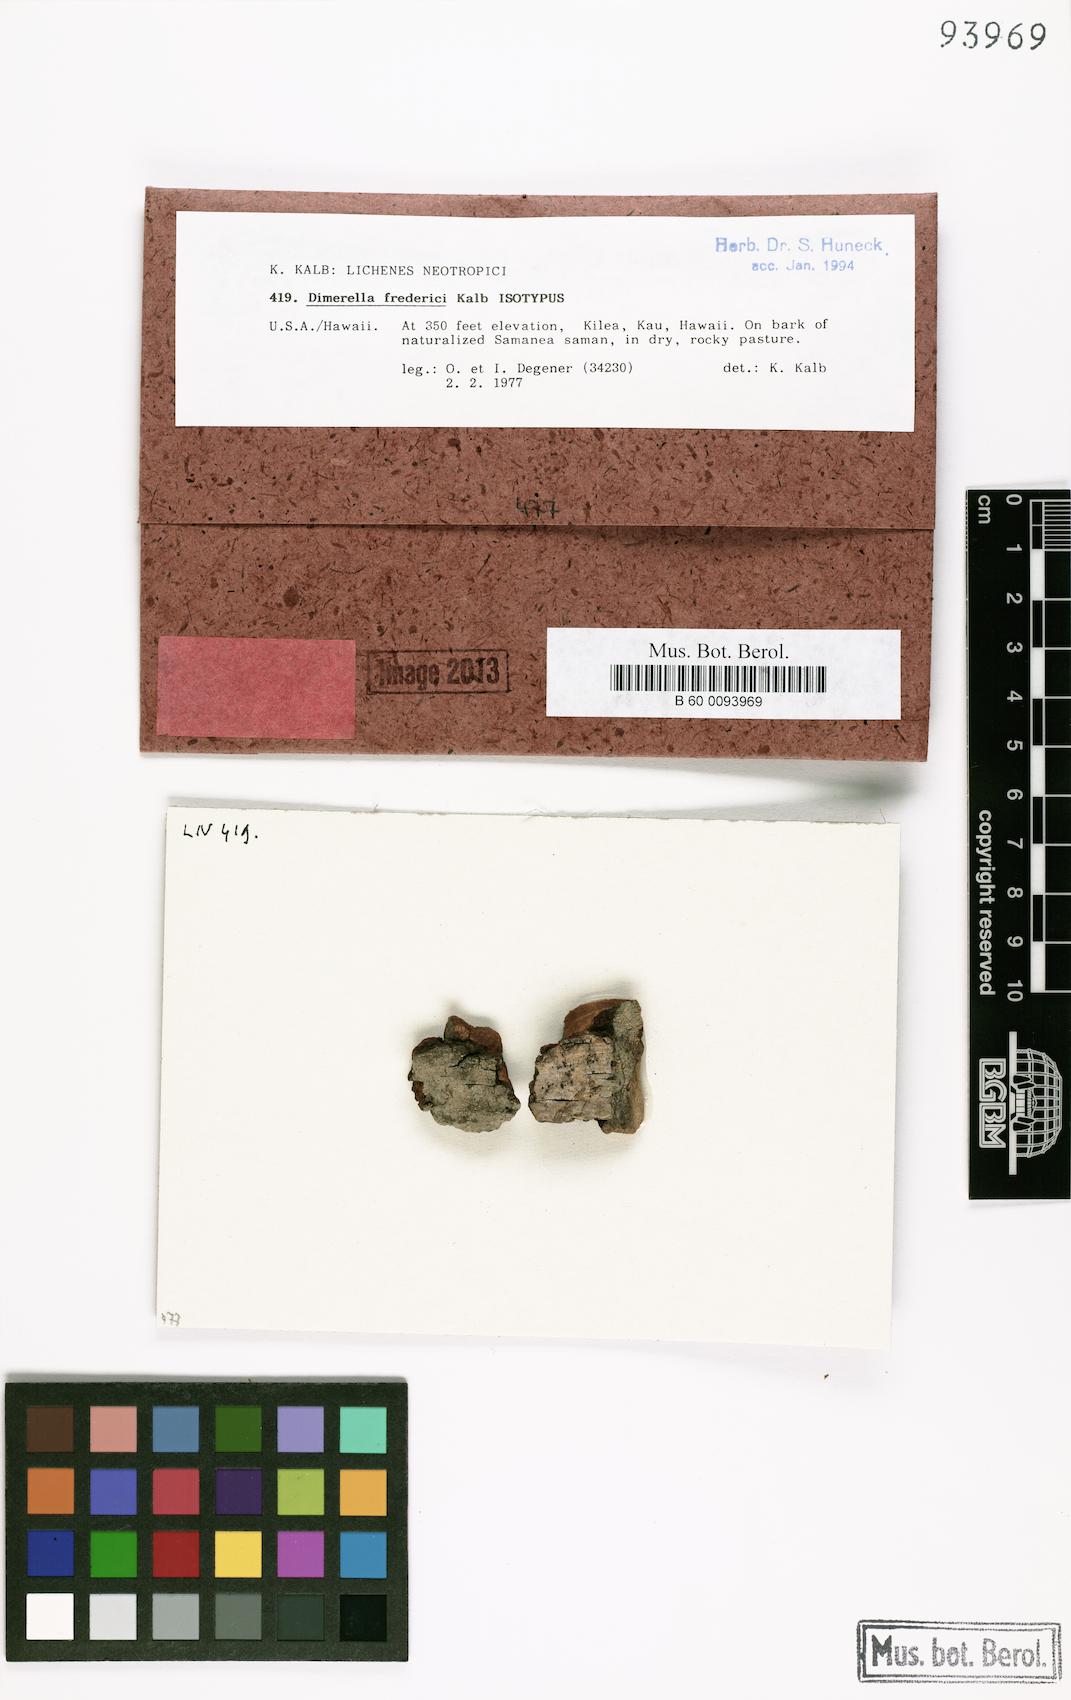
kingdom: Fungi
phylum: Ascomycota
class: Lecanoromycetes
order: Gyalectales
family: Gyalectaceae
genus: Dimerella
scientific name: Dimerella fredrici
